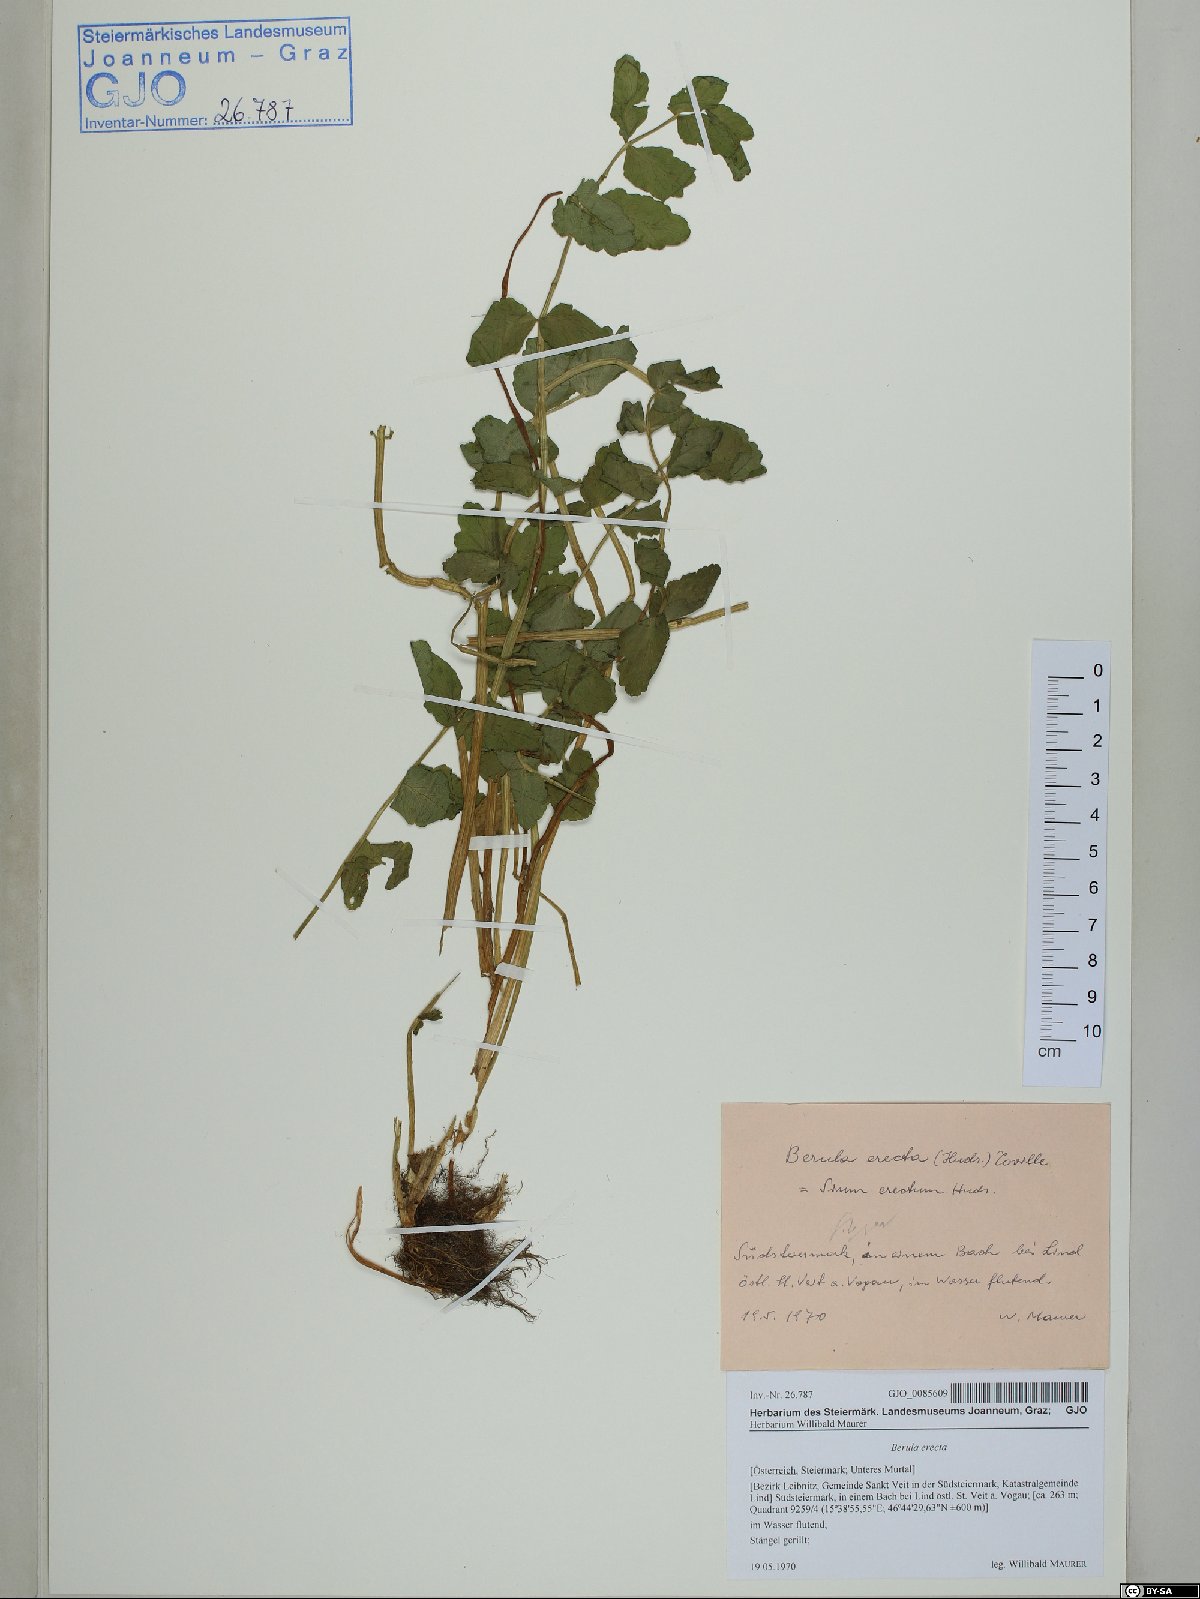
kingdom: Plantae
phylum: Tracheophyta
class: Magnoliopsida
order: Apiales
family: Apiaceae
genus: Berula
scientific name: Berula erecta
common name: Lesser water-parsnip
